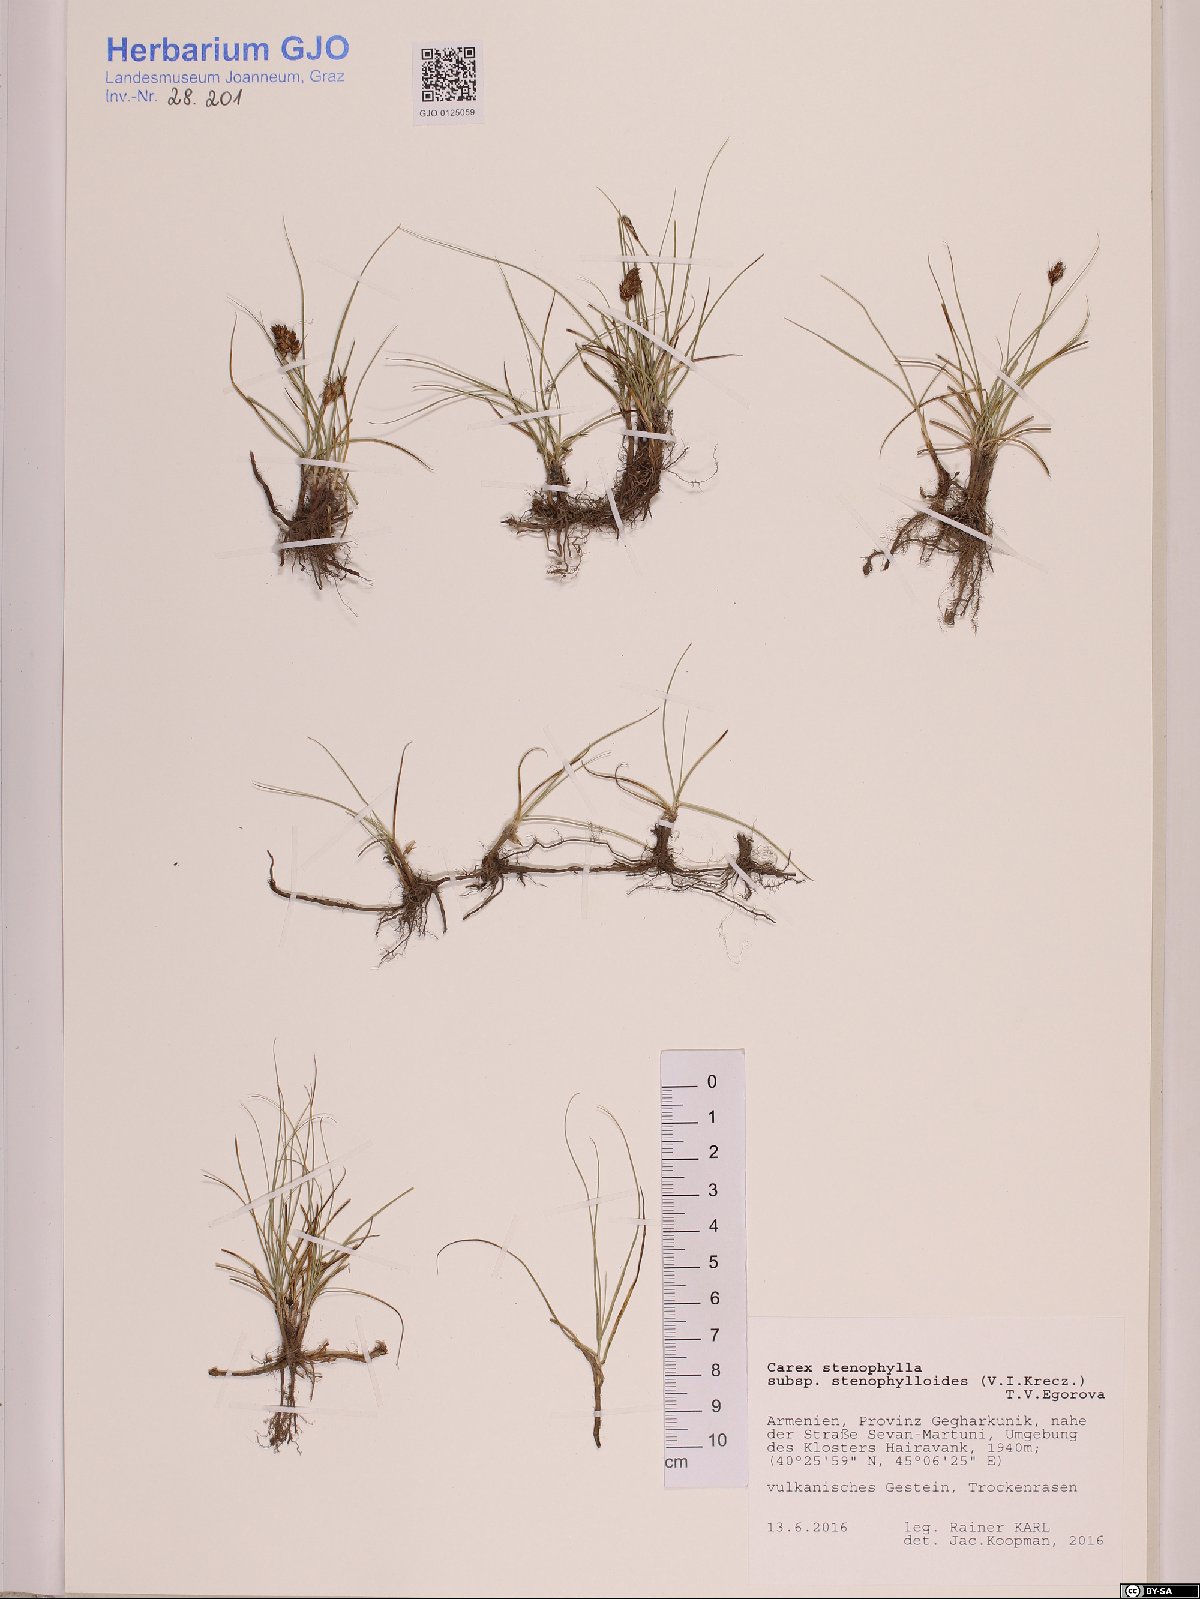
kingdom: Plantae
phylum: Tracheophyta
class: Liliopsida
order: Poales
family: Cyperaceae
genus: Carex
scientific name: Carex stenophylla
